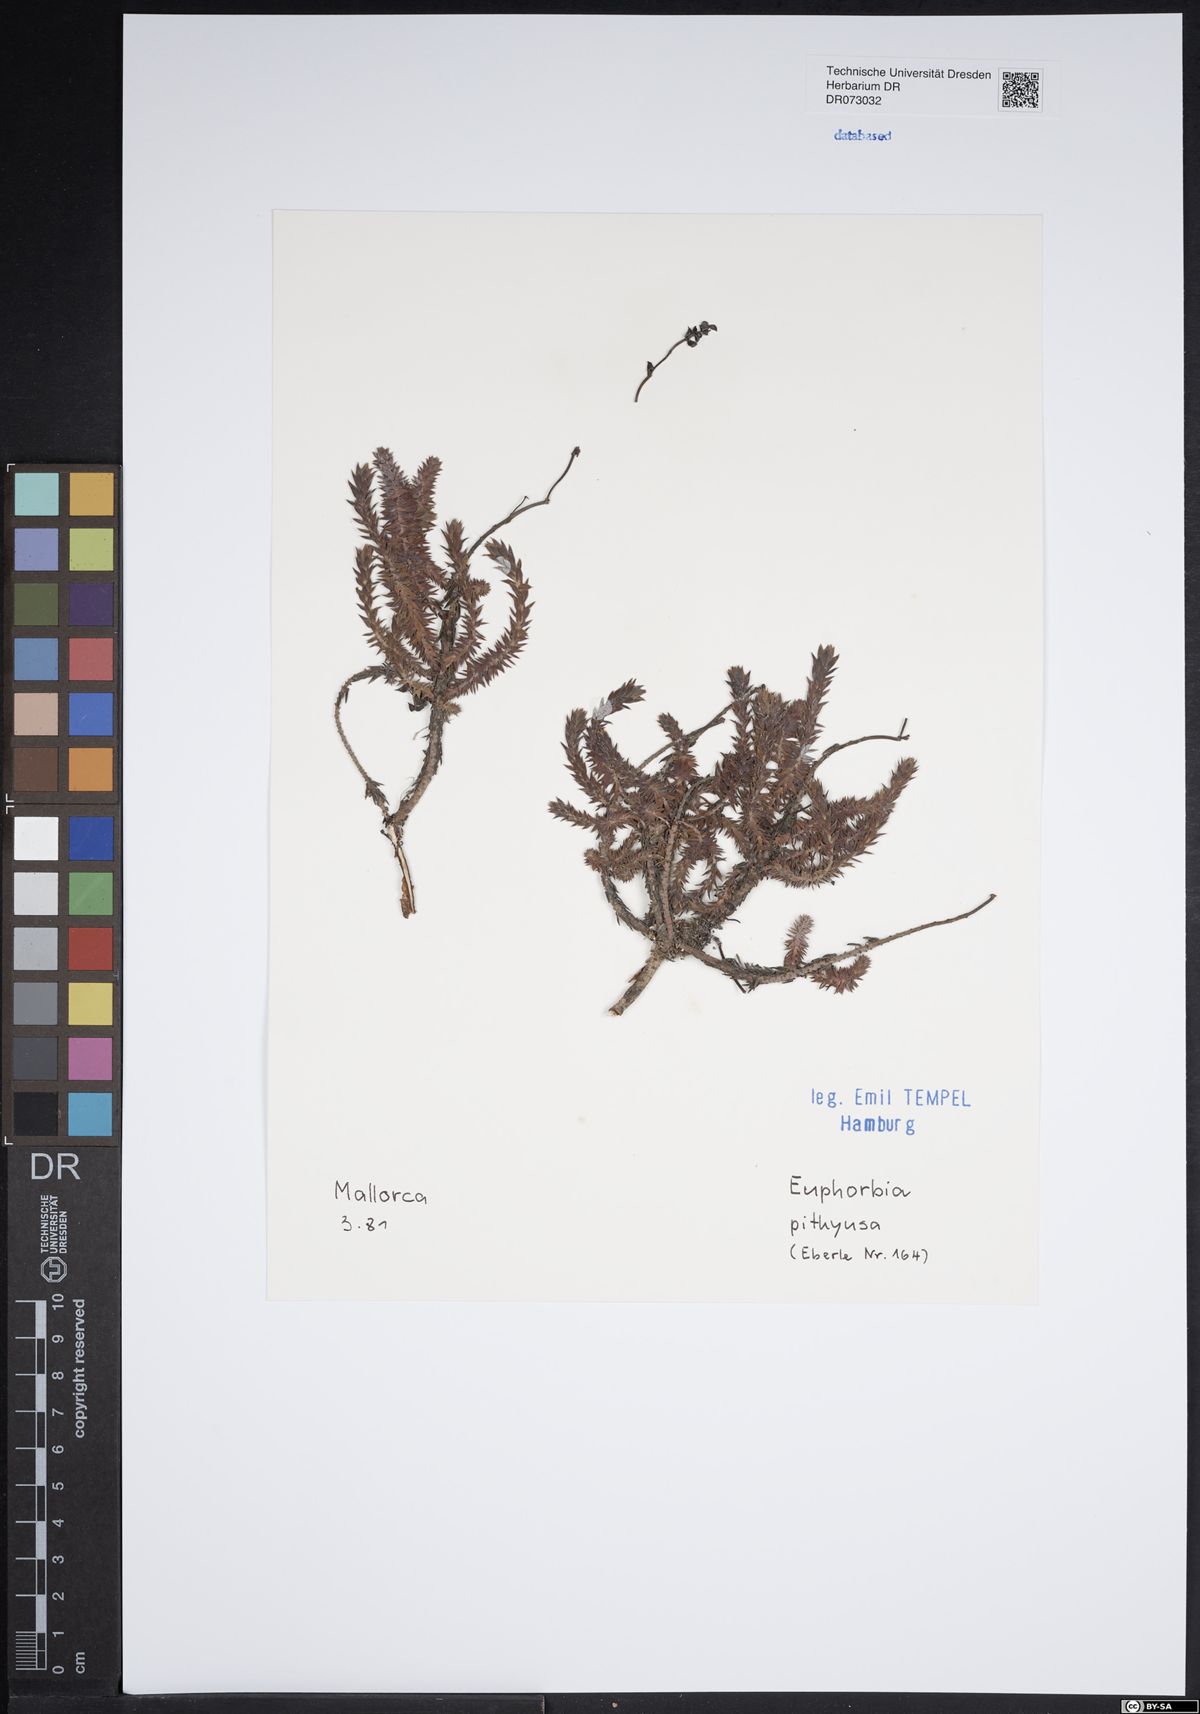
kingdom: Plantae
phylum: Tracheophyta
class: Magnoliopsida
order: Malpighiales
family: Euphorbiaceae
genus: Mercurialis
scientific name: Mercurialis tomentosa
